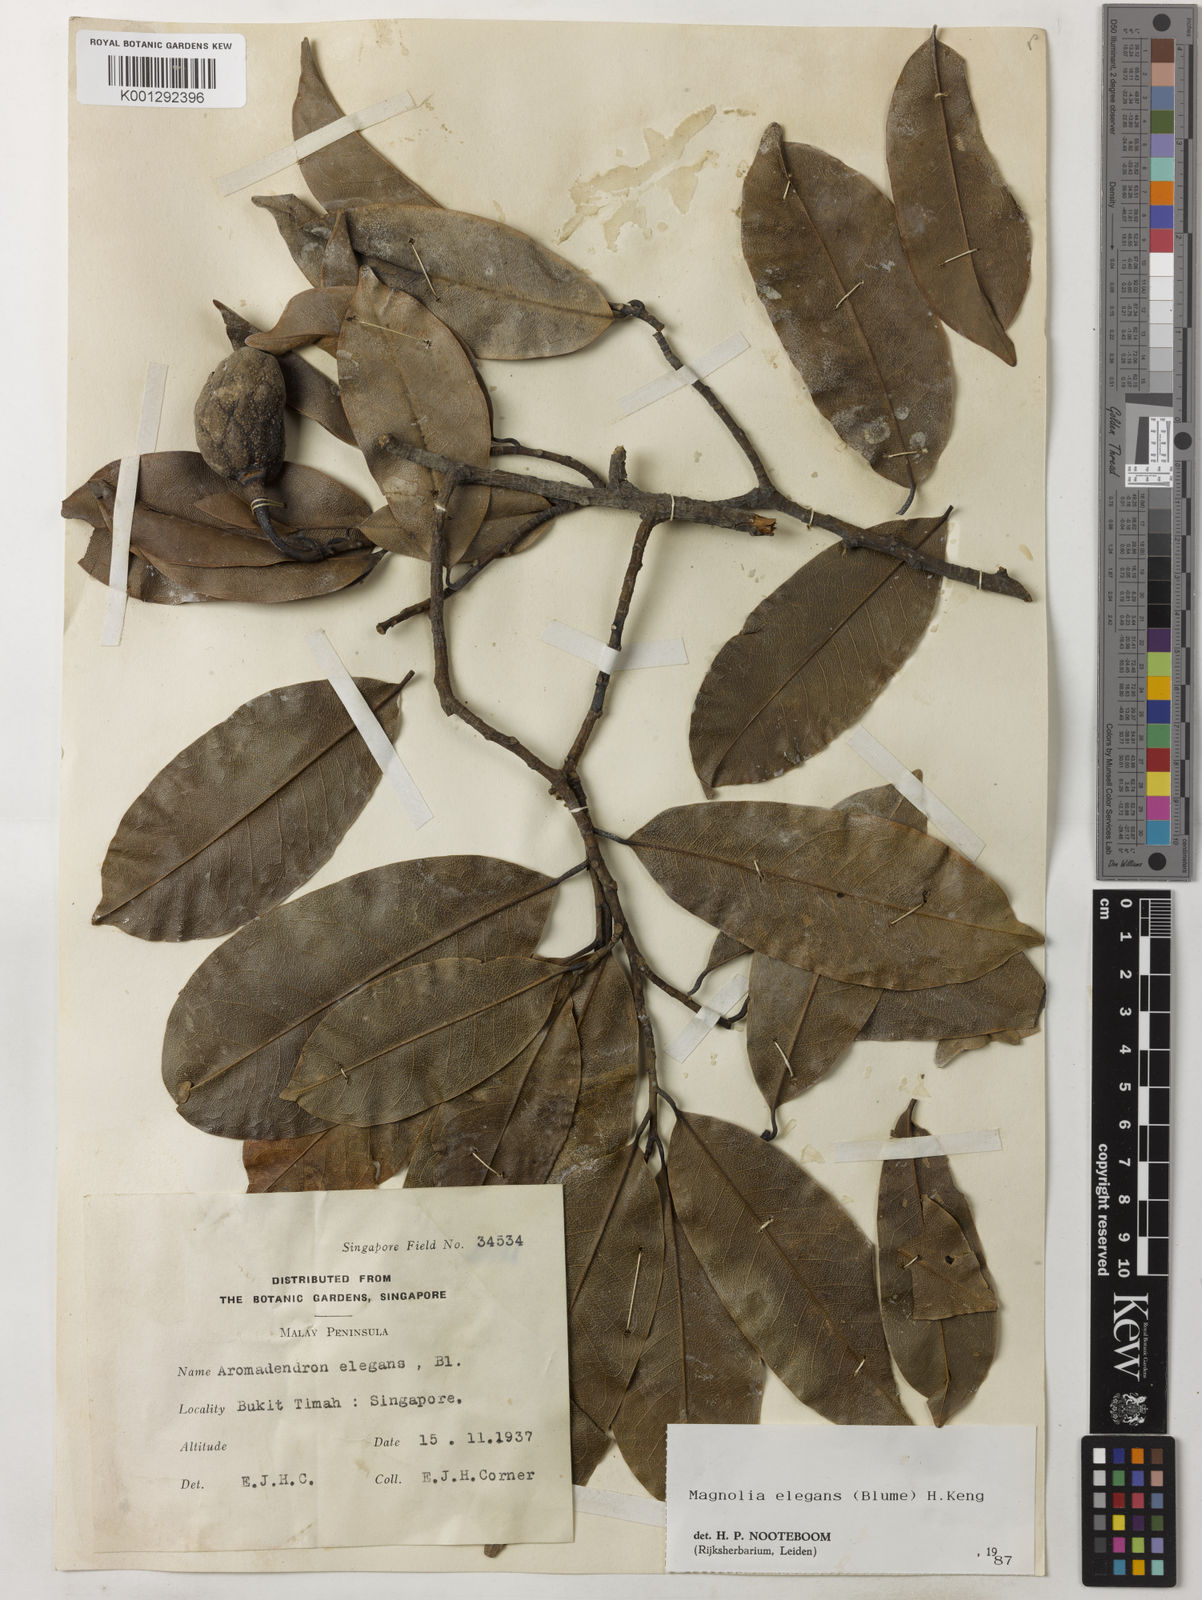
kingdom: Plantae
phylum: Tracheophyta
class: Magnoliopsida
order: Magnoliales
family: Magnoliaceae
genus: Magnolia
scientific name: Magnolia elegans
